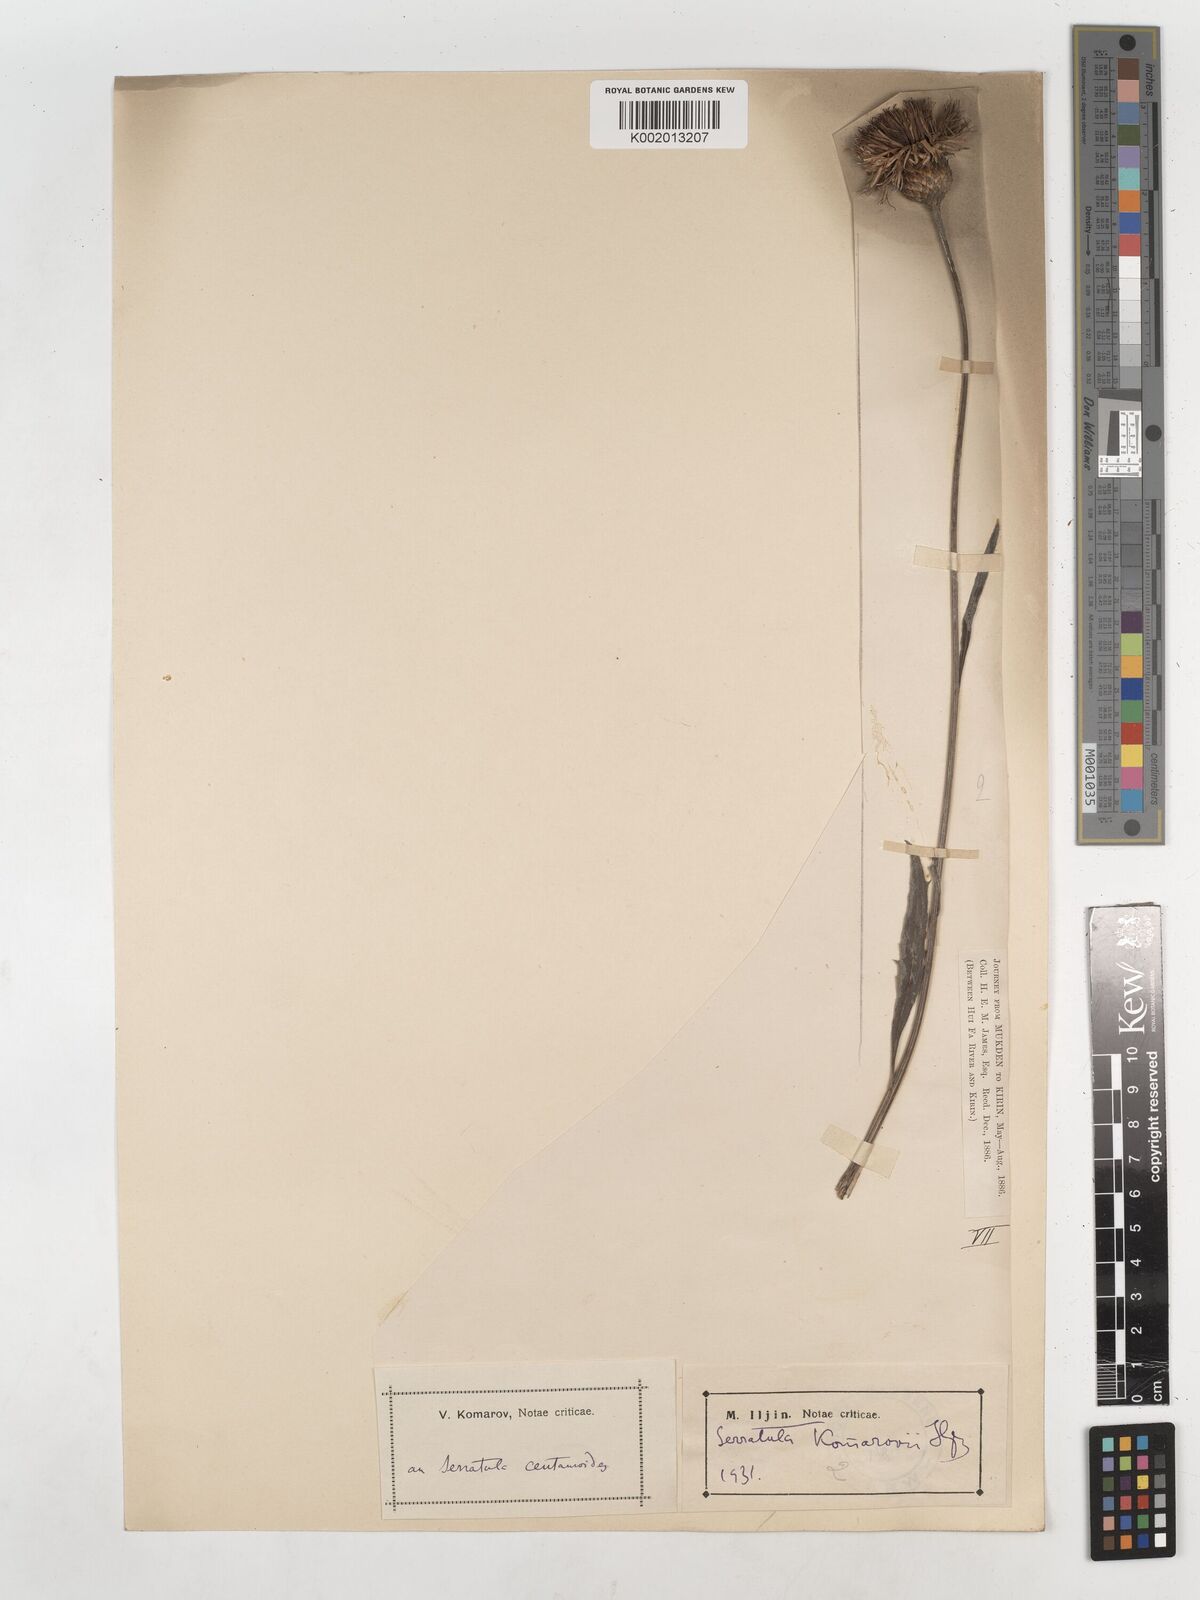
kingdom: Plantae
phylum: Tracheophyta
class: Magnoliopsida
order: Asterales
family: Asteraceae
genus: Klasea
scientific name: Klasea centauroides
